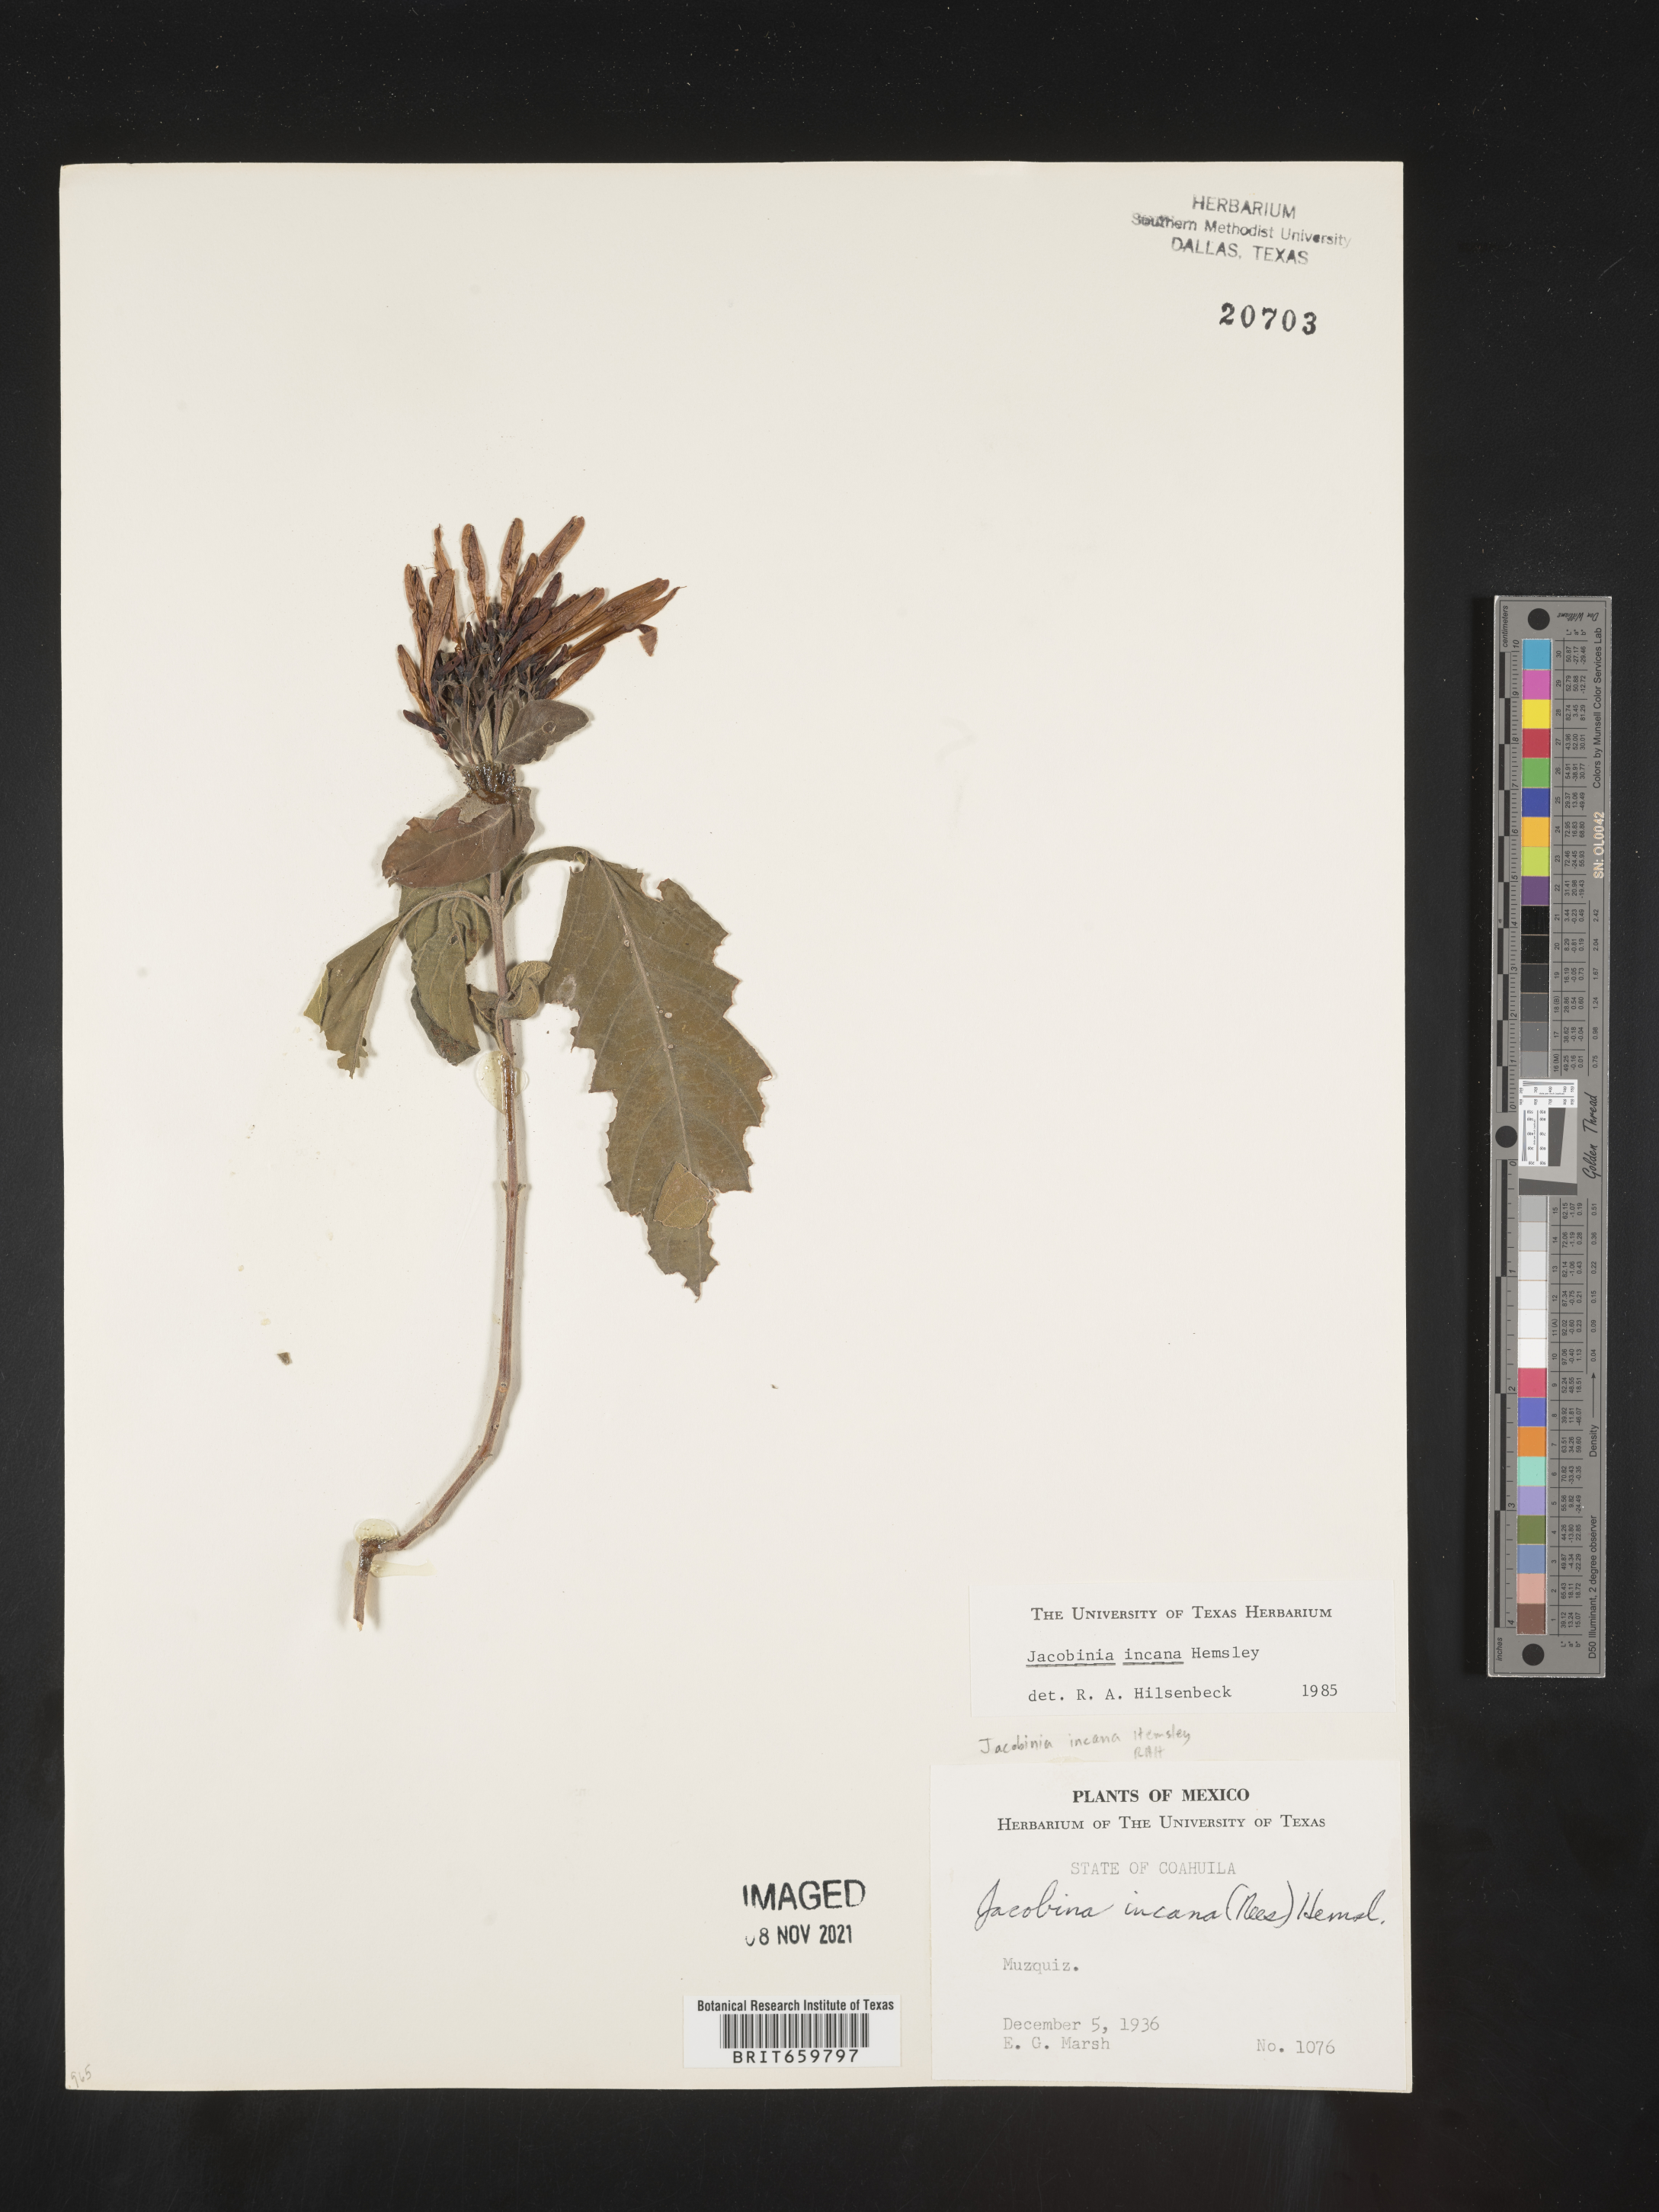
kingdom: Plantae
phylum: Tracheophyta
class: Magnoliopsida
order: Lamiales
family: Acanthaceae
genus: Justicia
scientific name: Justicia
